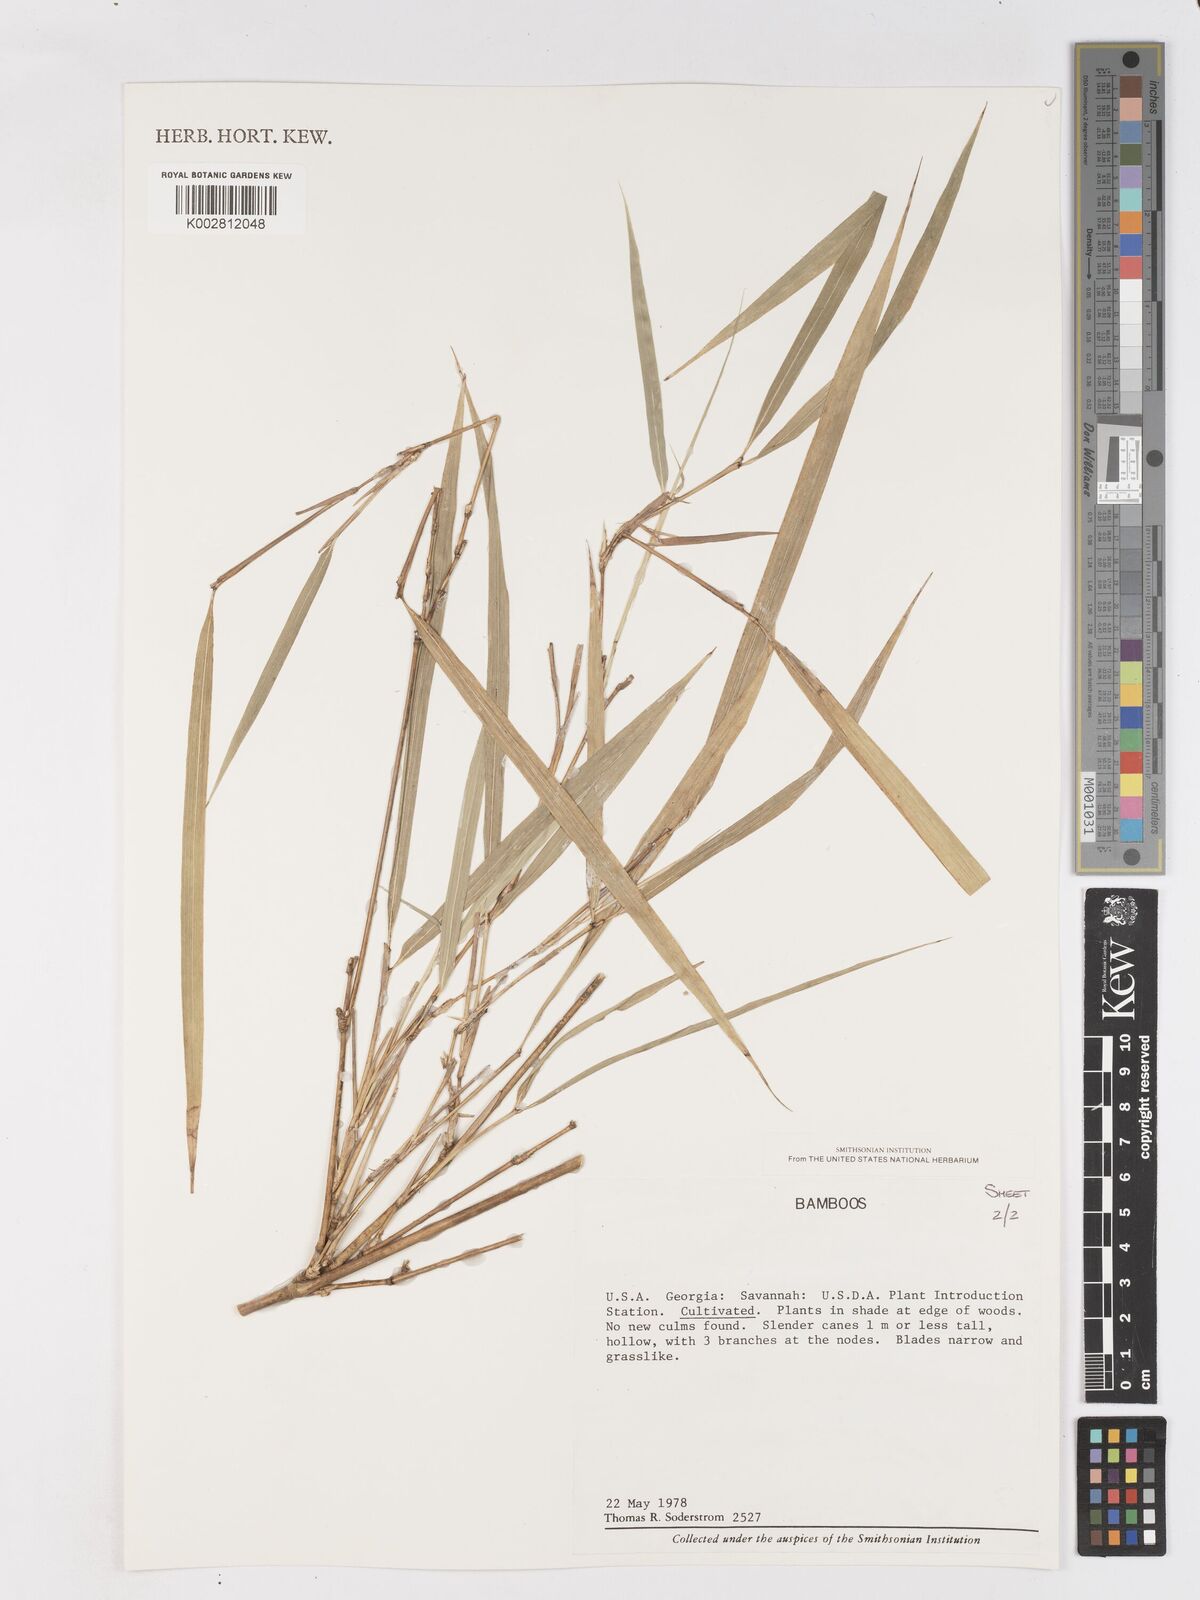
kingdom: Plantae
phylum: Tracheophyta
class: Liliopsida
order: Poales
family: Poaceae
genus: Pleioblastus
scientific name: Pleioblastus simonii
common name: Simon bamboo
